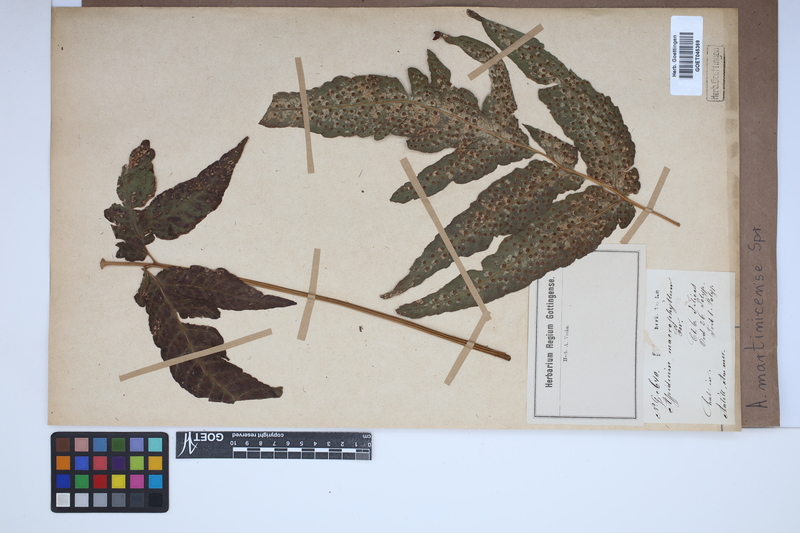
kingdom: Plantae
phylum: Tracheophyta
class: Polypodiopsida
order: Polypodiales
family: Tectariaceae
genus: Tectaria
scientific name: Tectaria incisa
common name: Incised halberd fern
